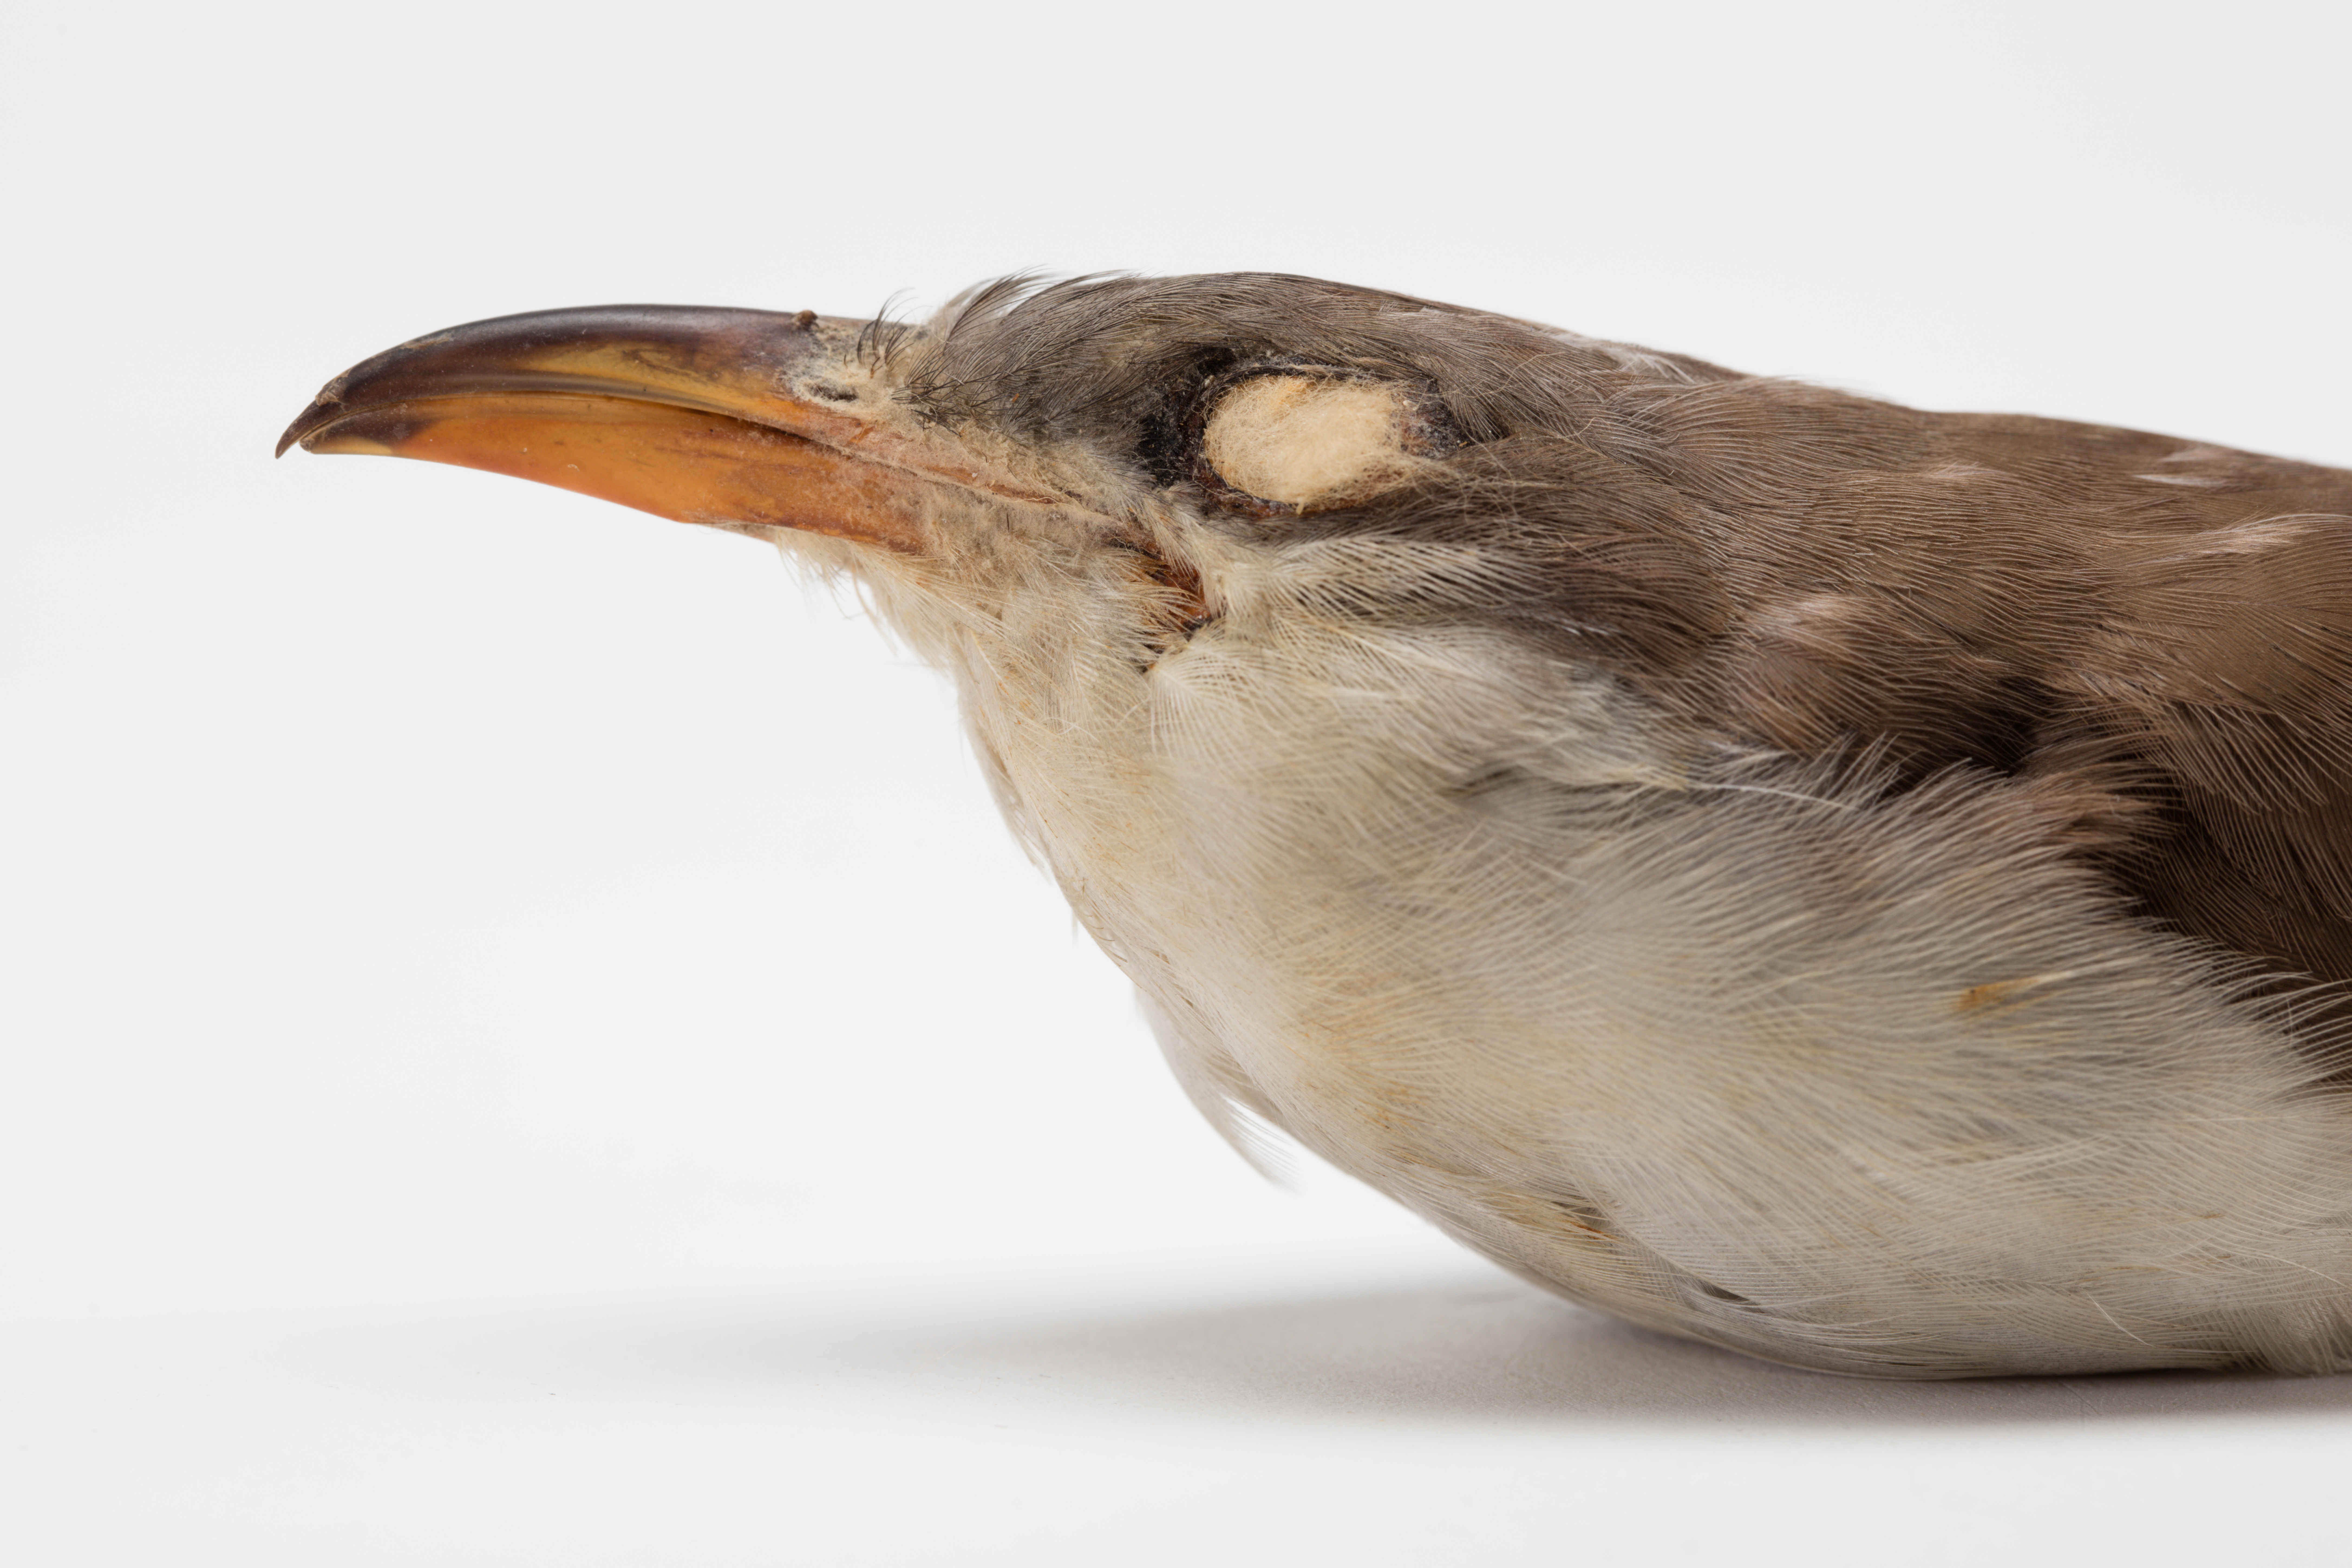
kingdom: Animalia
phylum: Chordata
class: Aves
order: Cuculiformes
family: Cuculidae
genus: Coccyzus
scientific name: Coccyzus americanus
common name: Yellow-billed cuckoo
